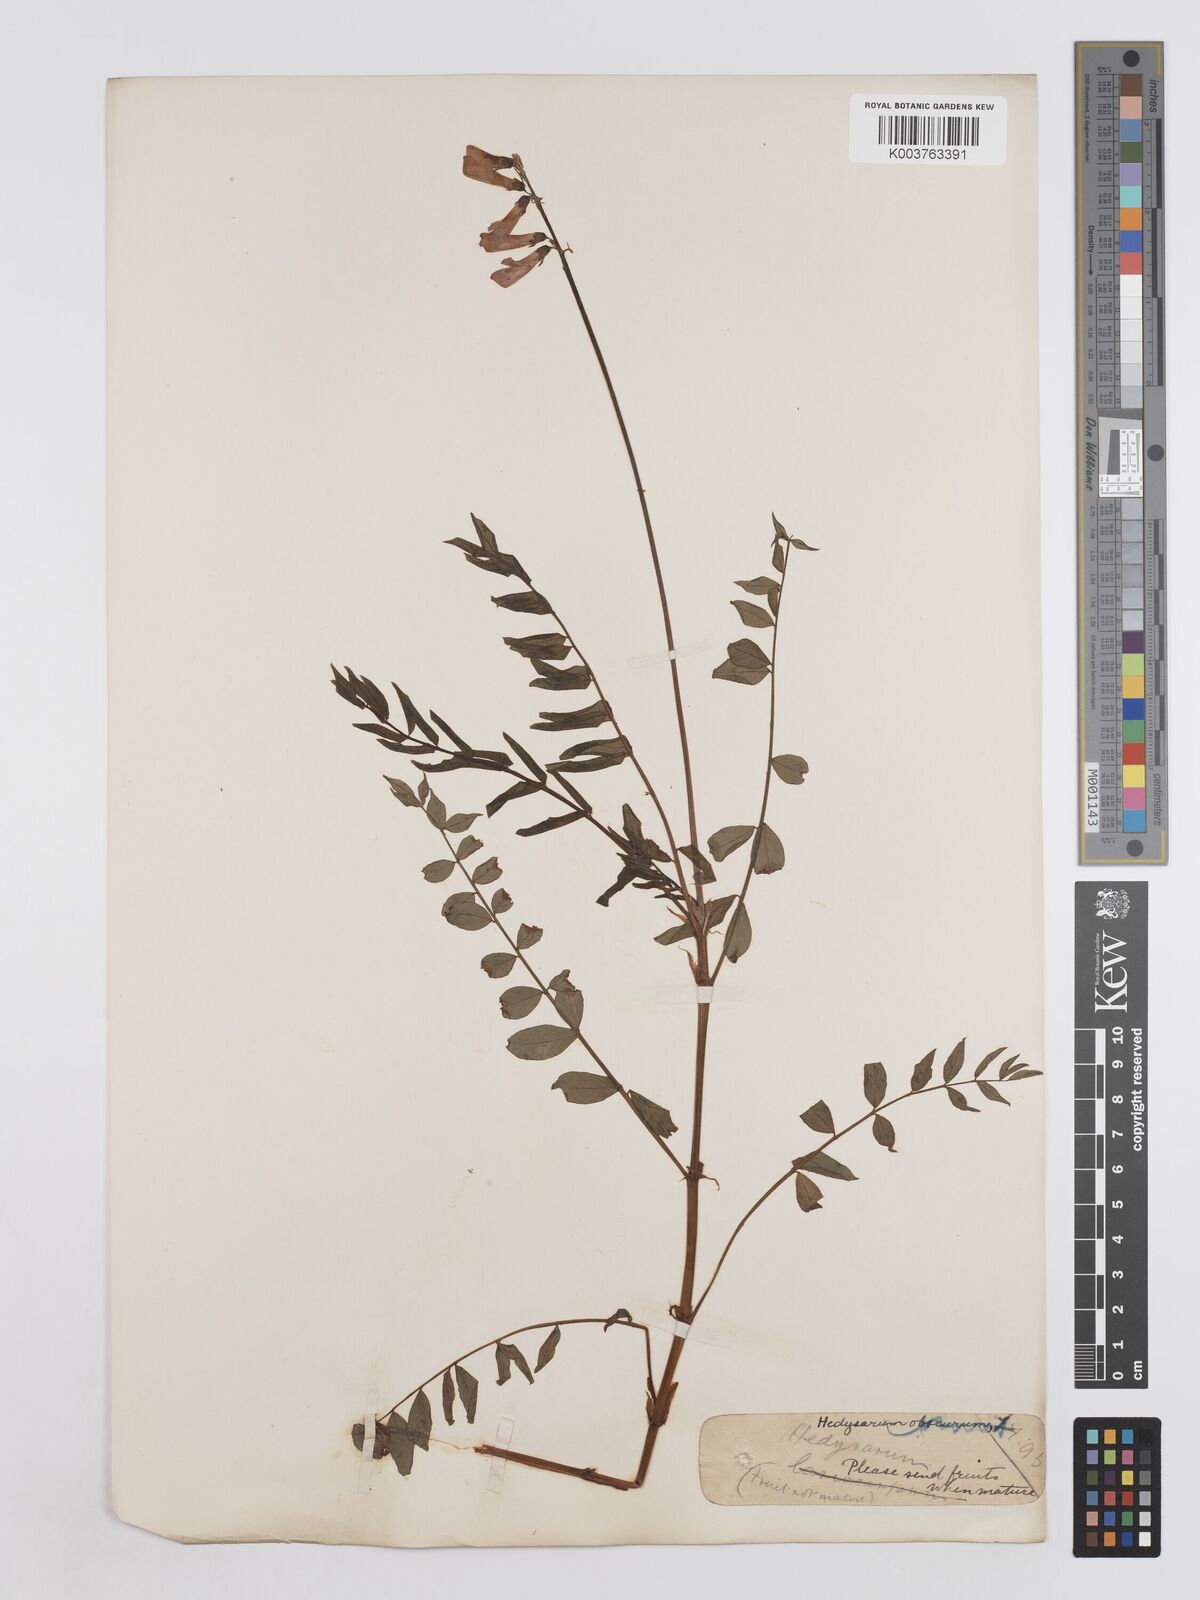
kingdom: Plantae
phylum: Tracheophyta
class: Magnoliopsida
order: Fabales
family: Fabaceae
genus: Hedysarum
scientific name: Hedysarum hedysaroides
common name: Alpine french-honeysuckle
